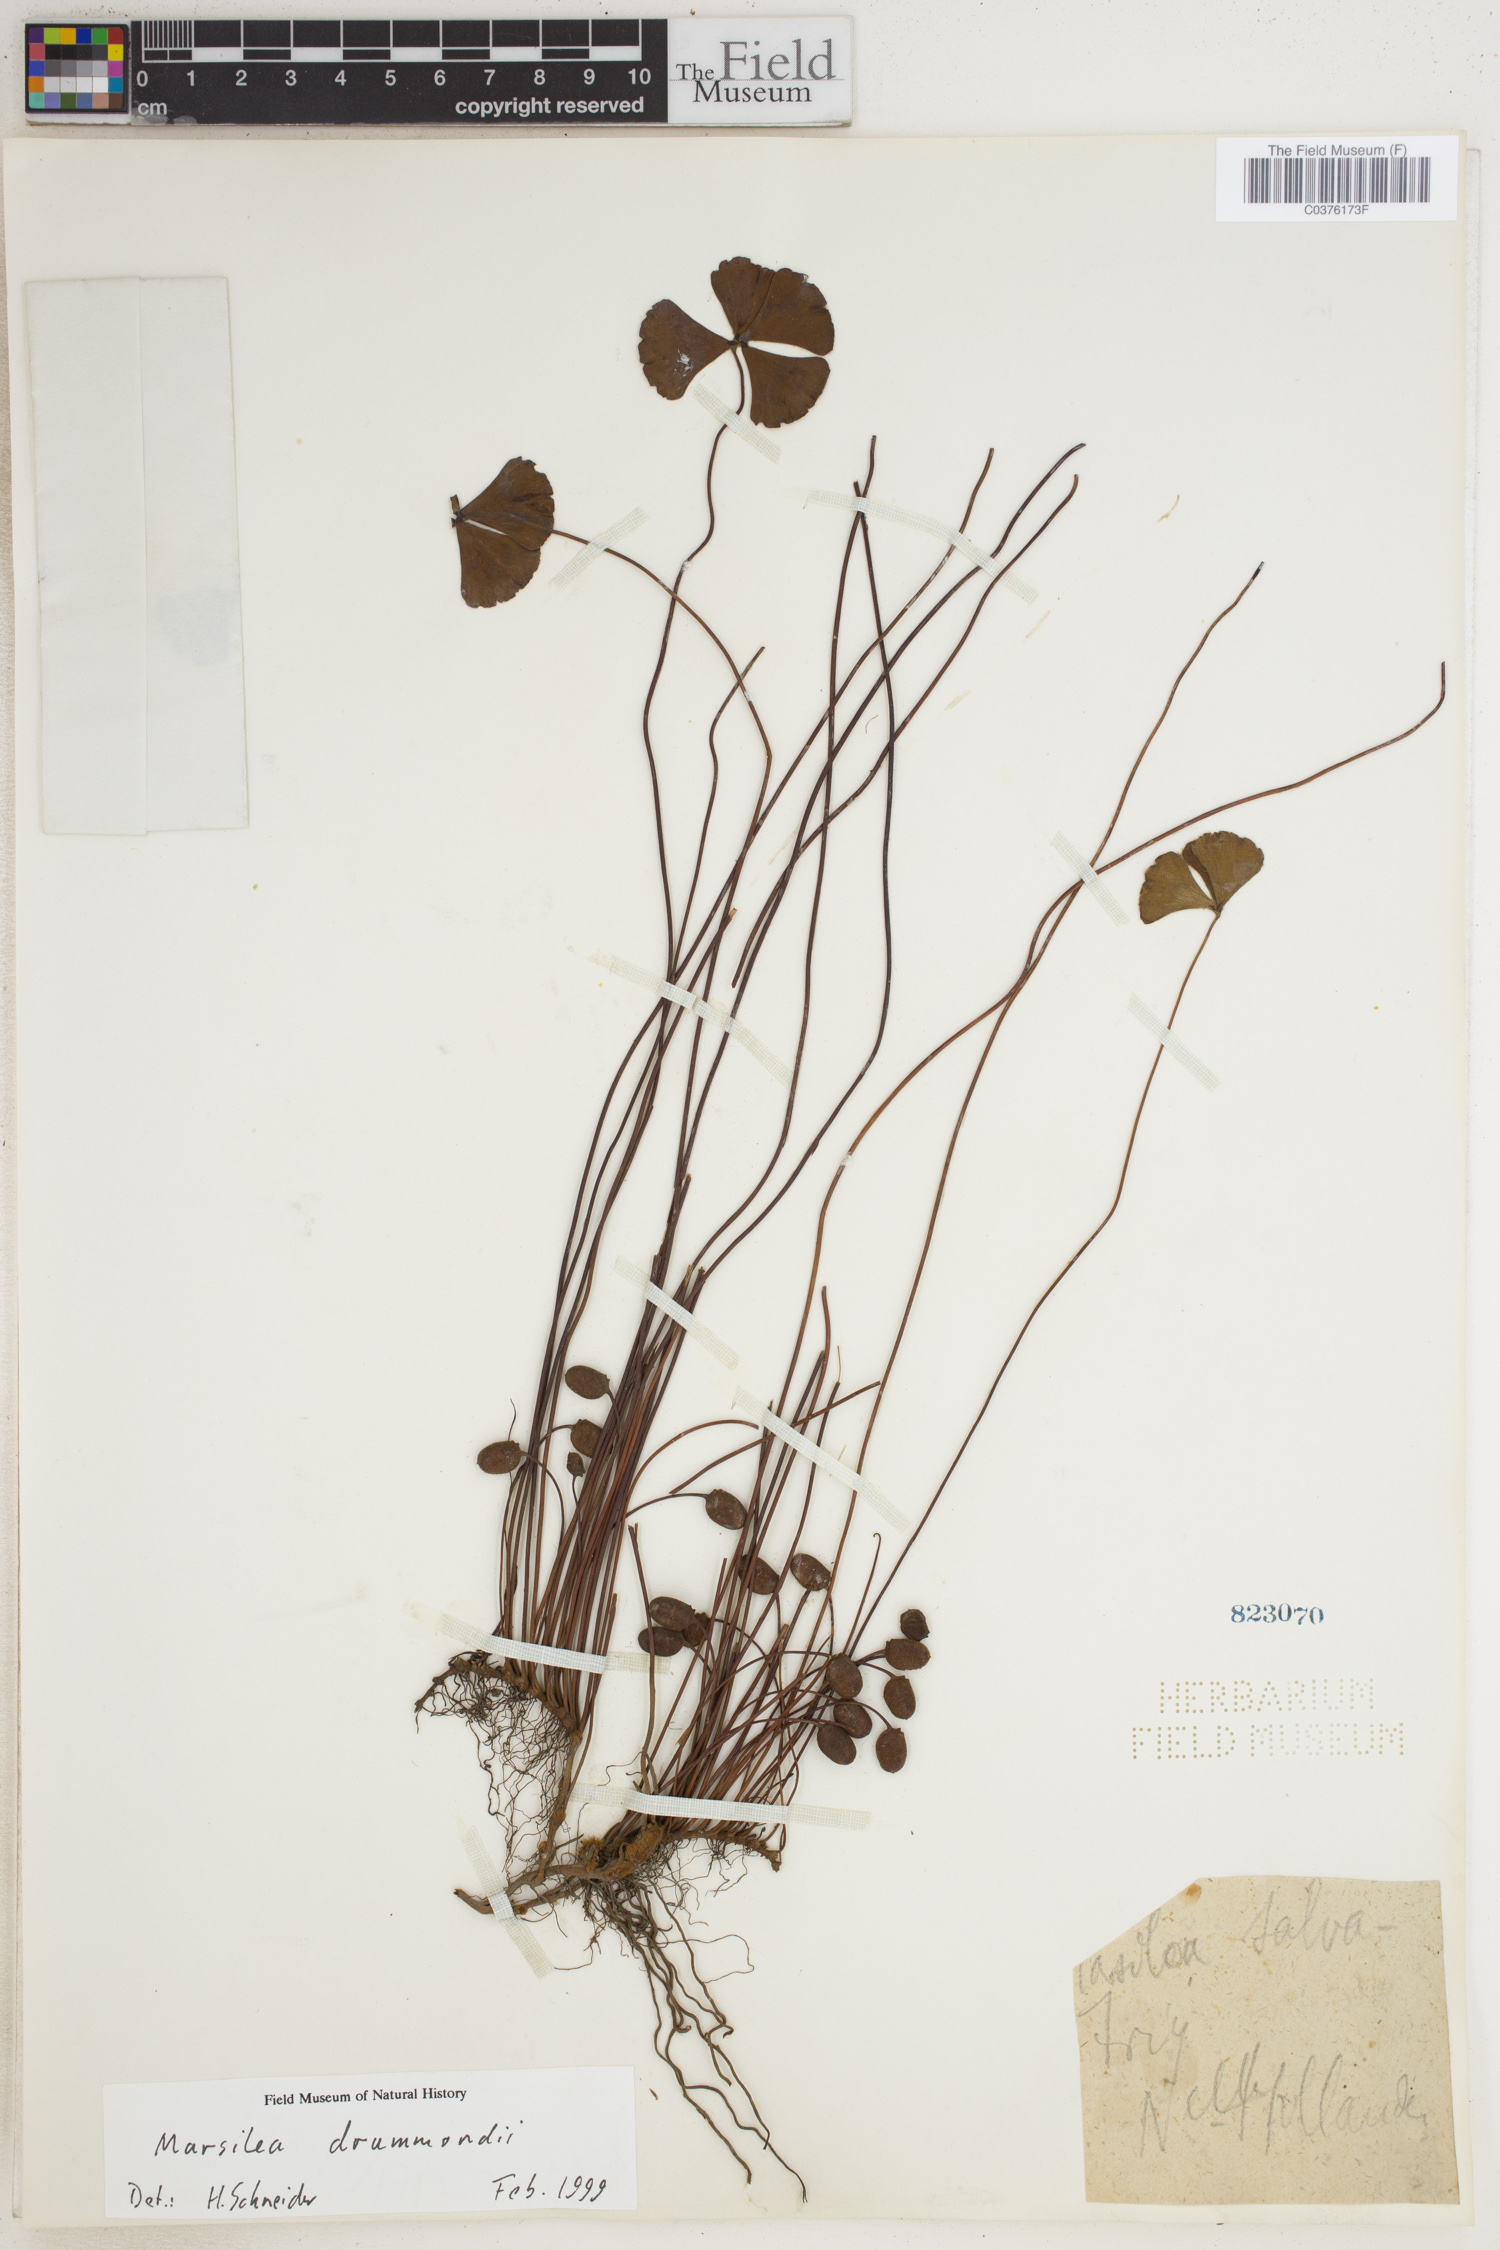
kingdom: Plantae
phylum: Tracheophyta
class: Polypodiopsida
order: Salviniales
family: Marsileaceae
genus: Marsilea
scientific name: Marsilea drummondii
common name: Nardoo
